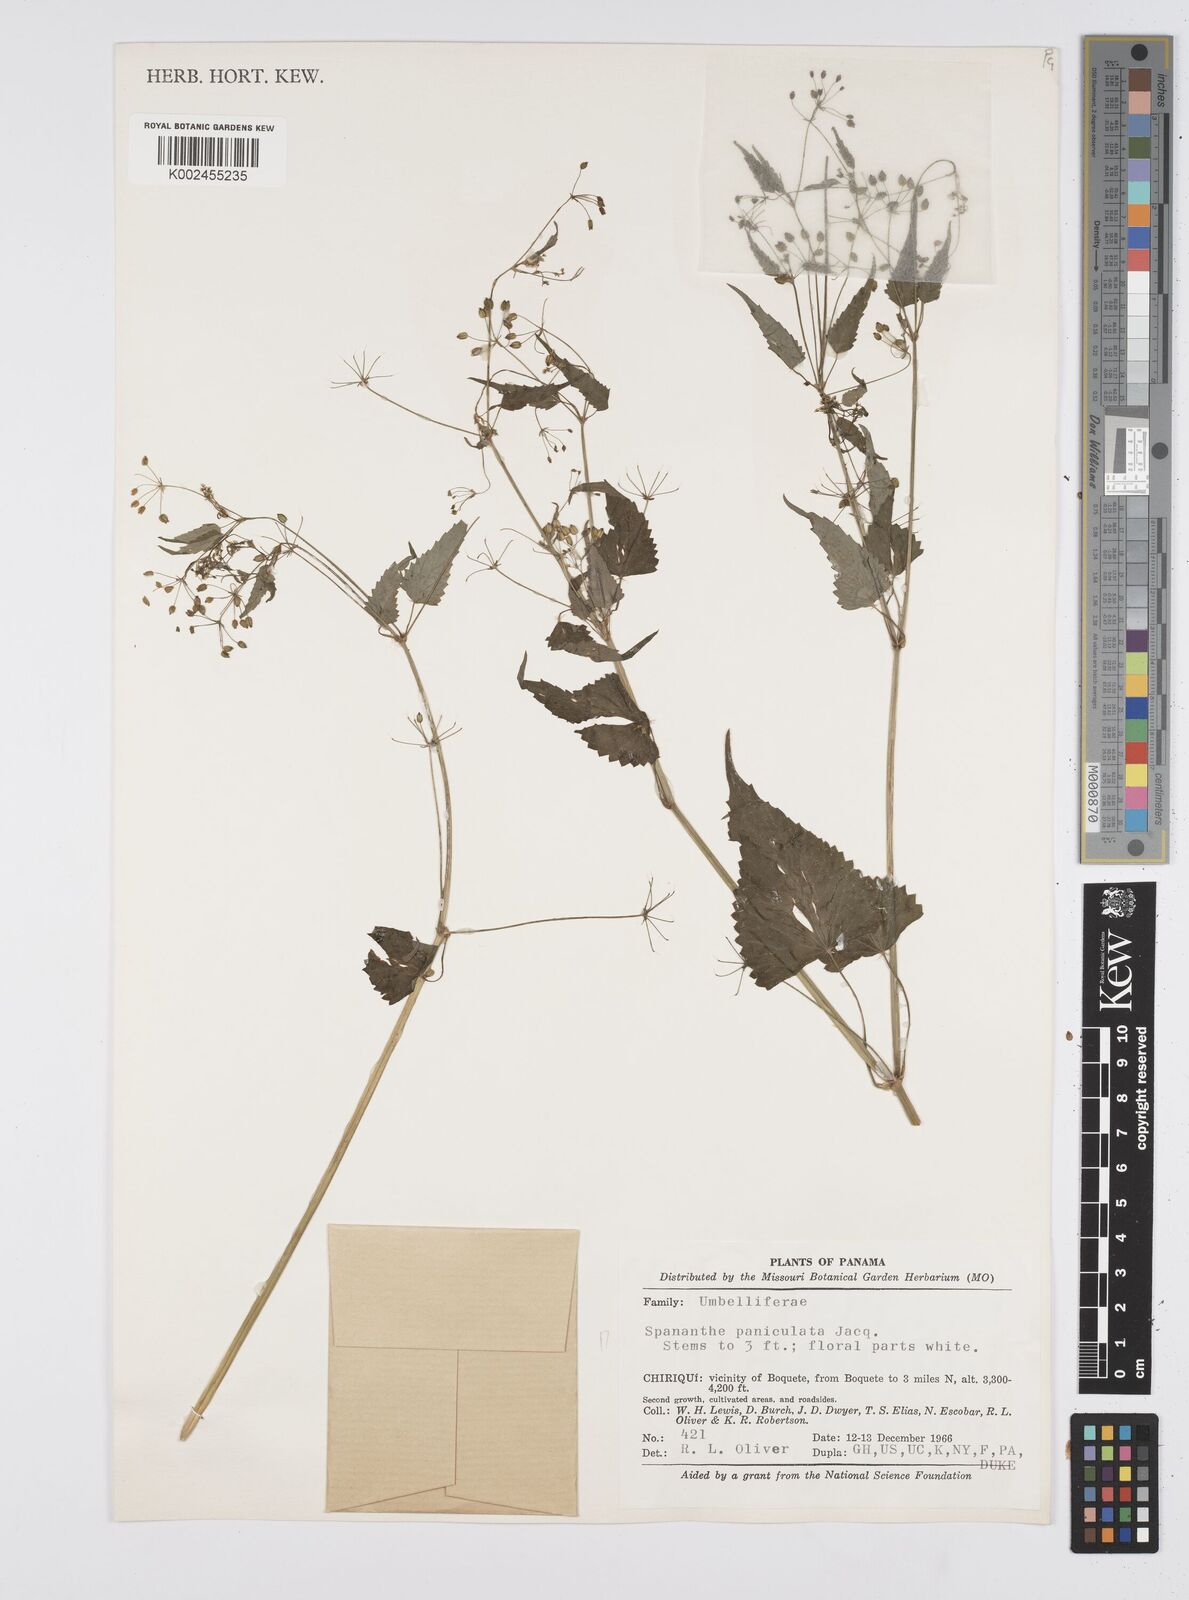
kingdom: Plantae
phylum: Tracheophyta
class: Magnoliopsida
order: Apiales
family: Apiaceae
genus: Azorella
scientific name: Azorella
